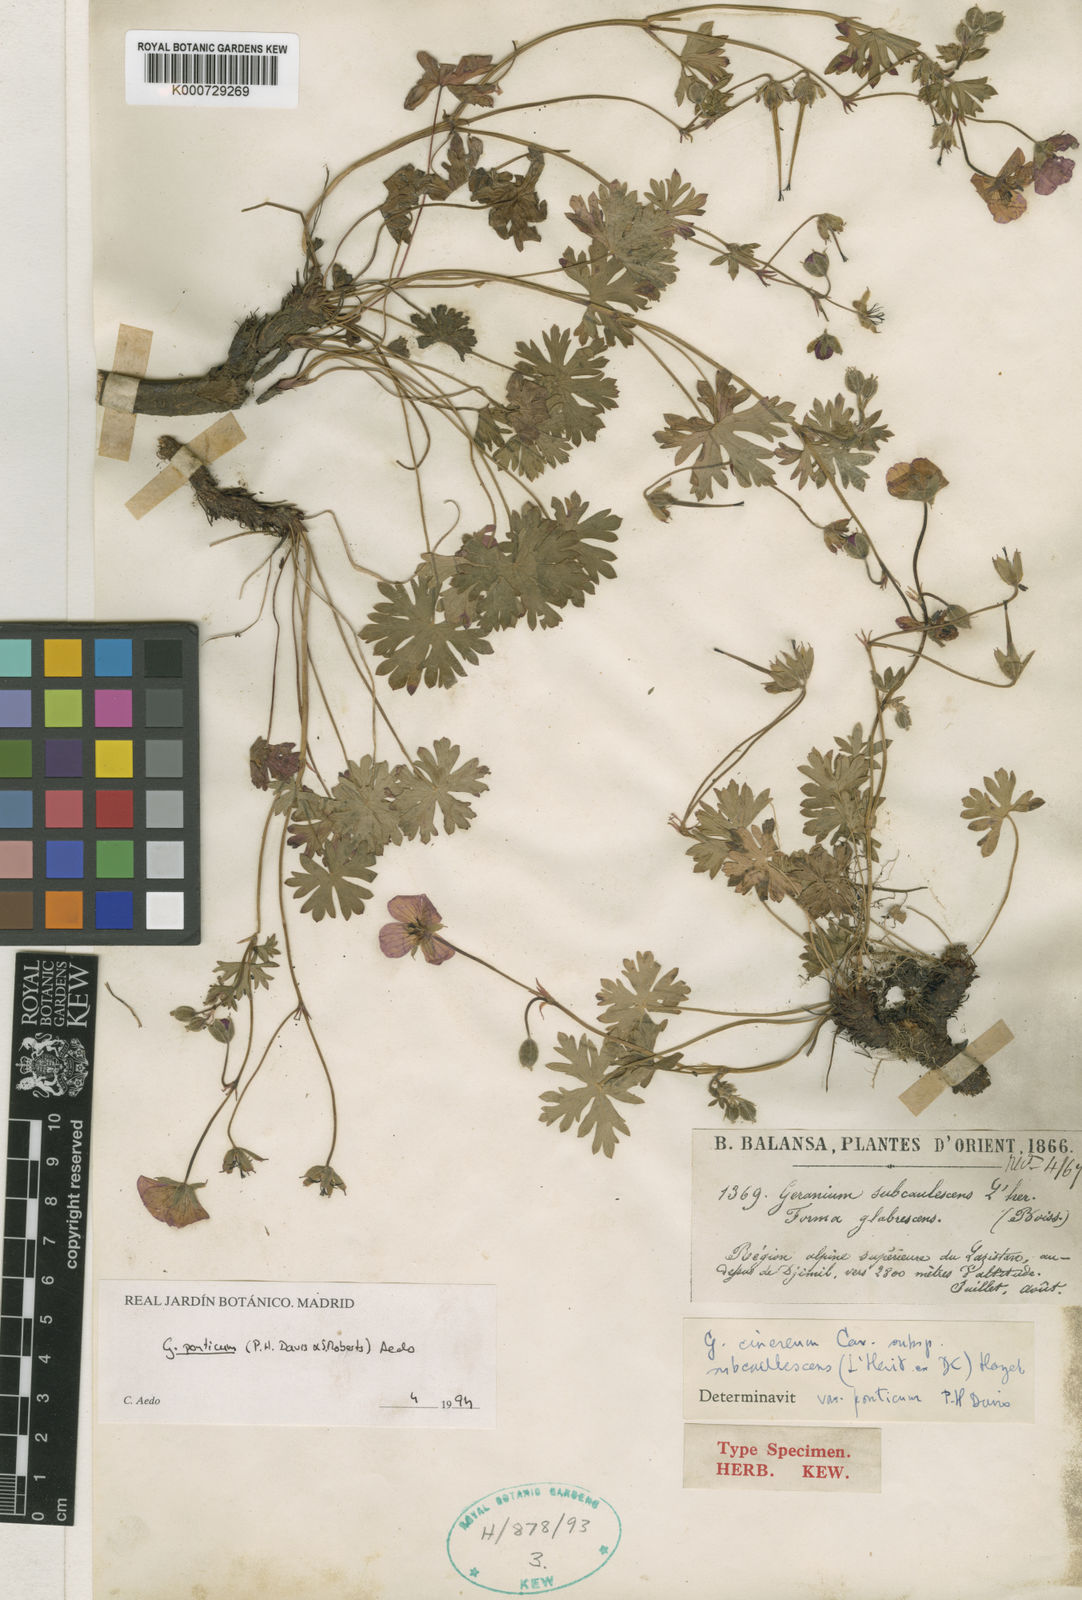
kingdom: Plantae
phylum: Tracheophyta
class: Magnoliopsida
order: Geraniales
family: Geraniaceae
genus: Geranium
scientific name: Geranium ponticum
